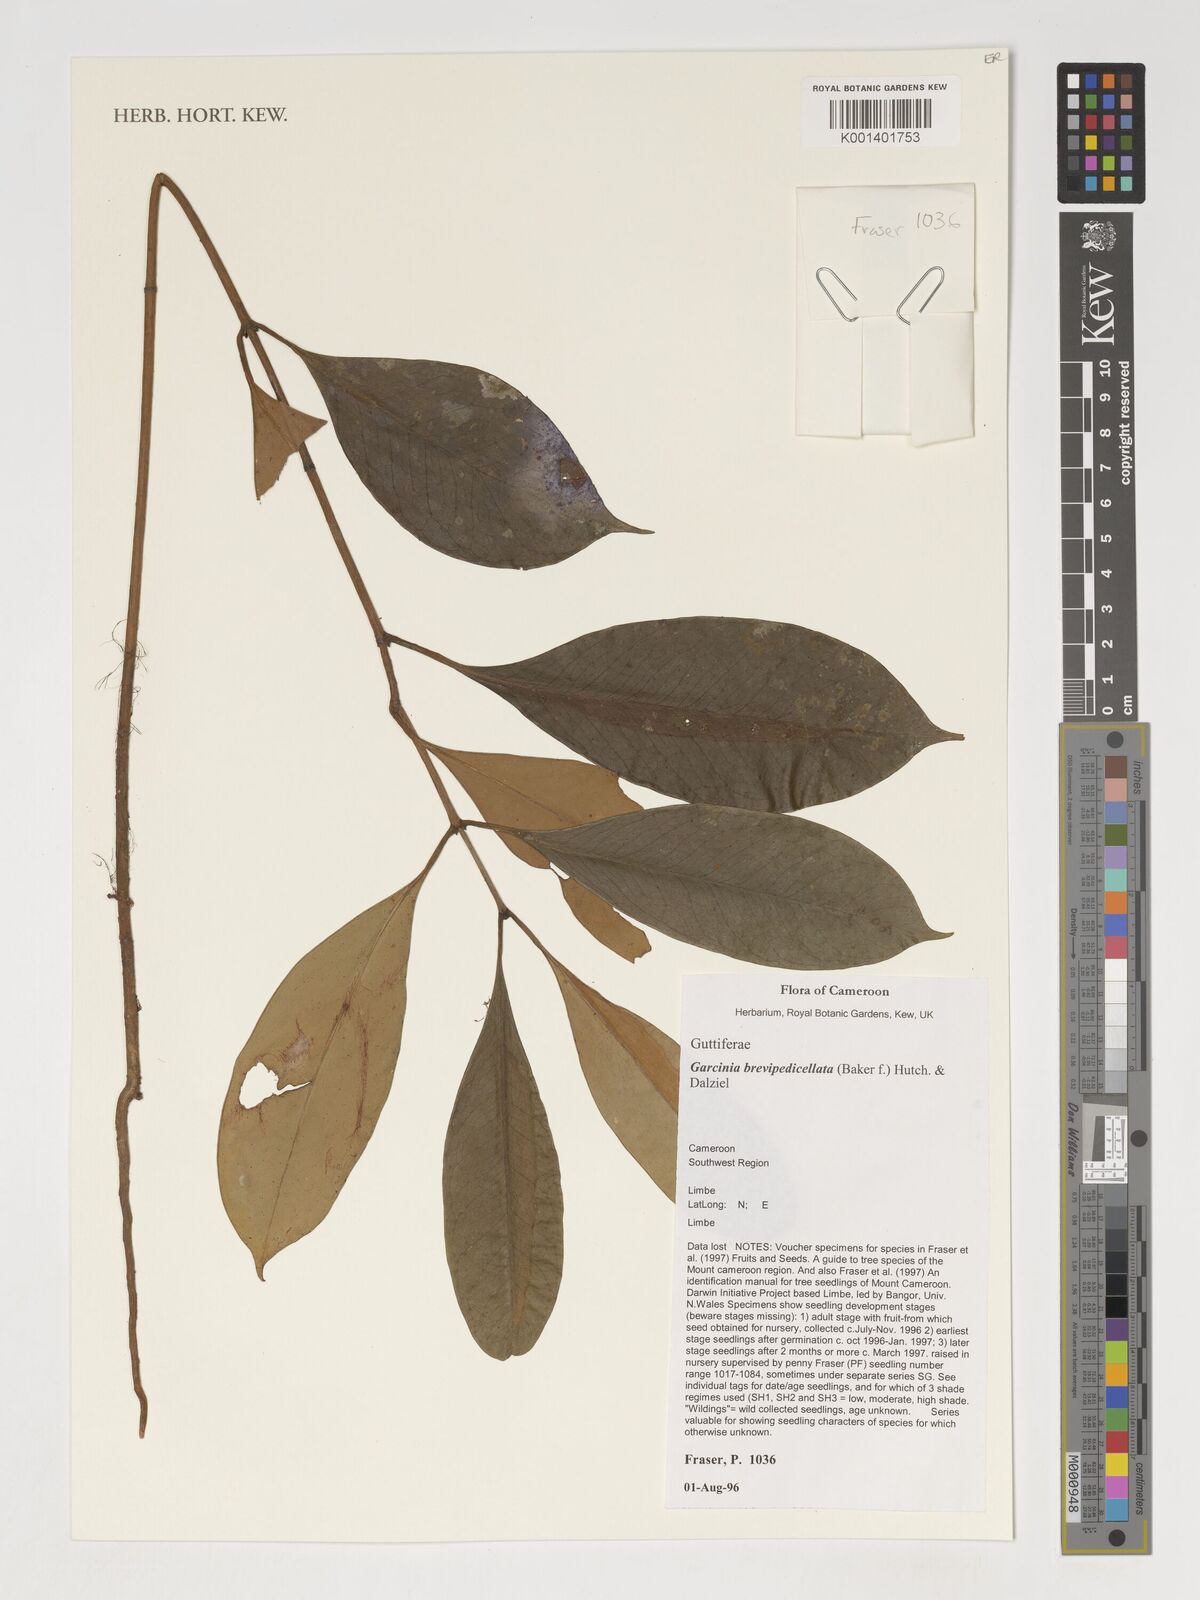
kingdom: Plantae
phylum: Tracheophyta
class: Magnoliopsida
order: Malpighiales
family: Clusiaceae
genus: Garcinia
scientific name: Garcinia brevipedicellata
